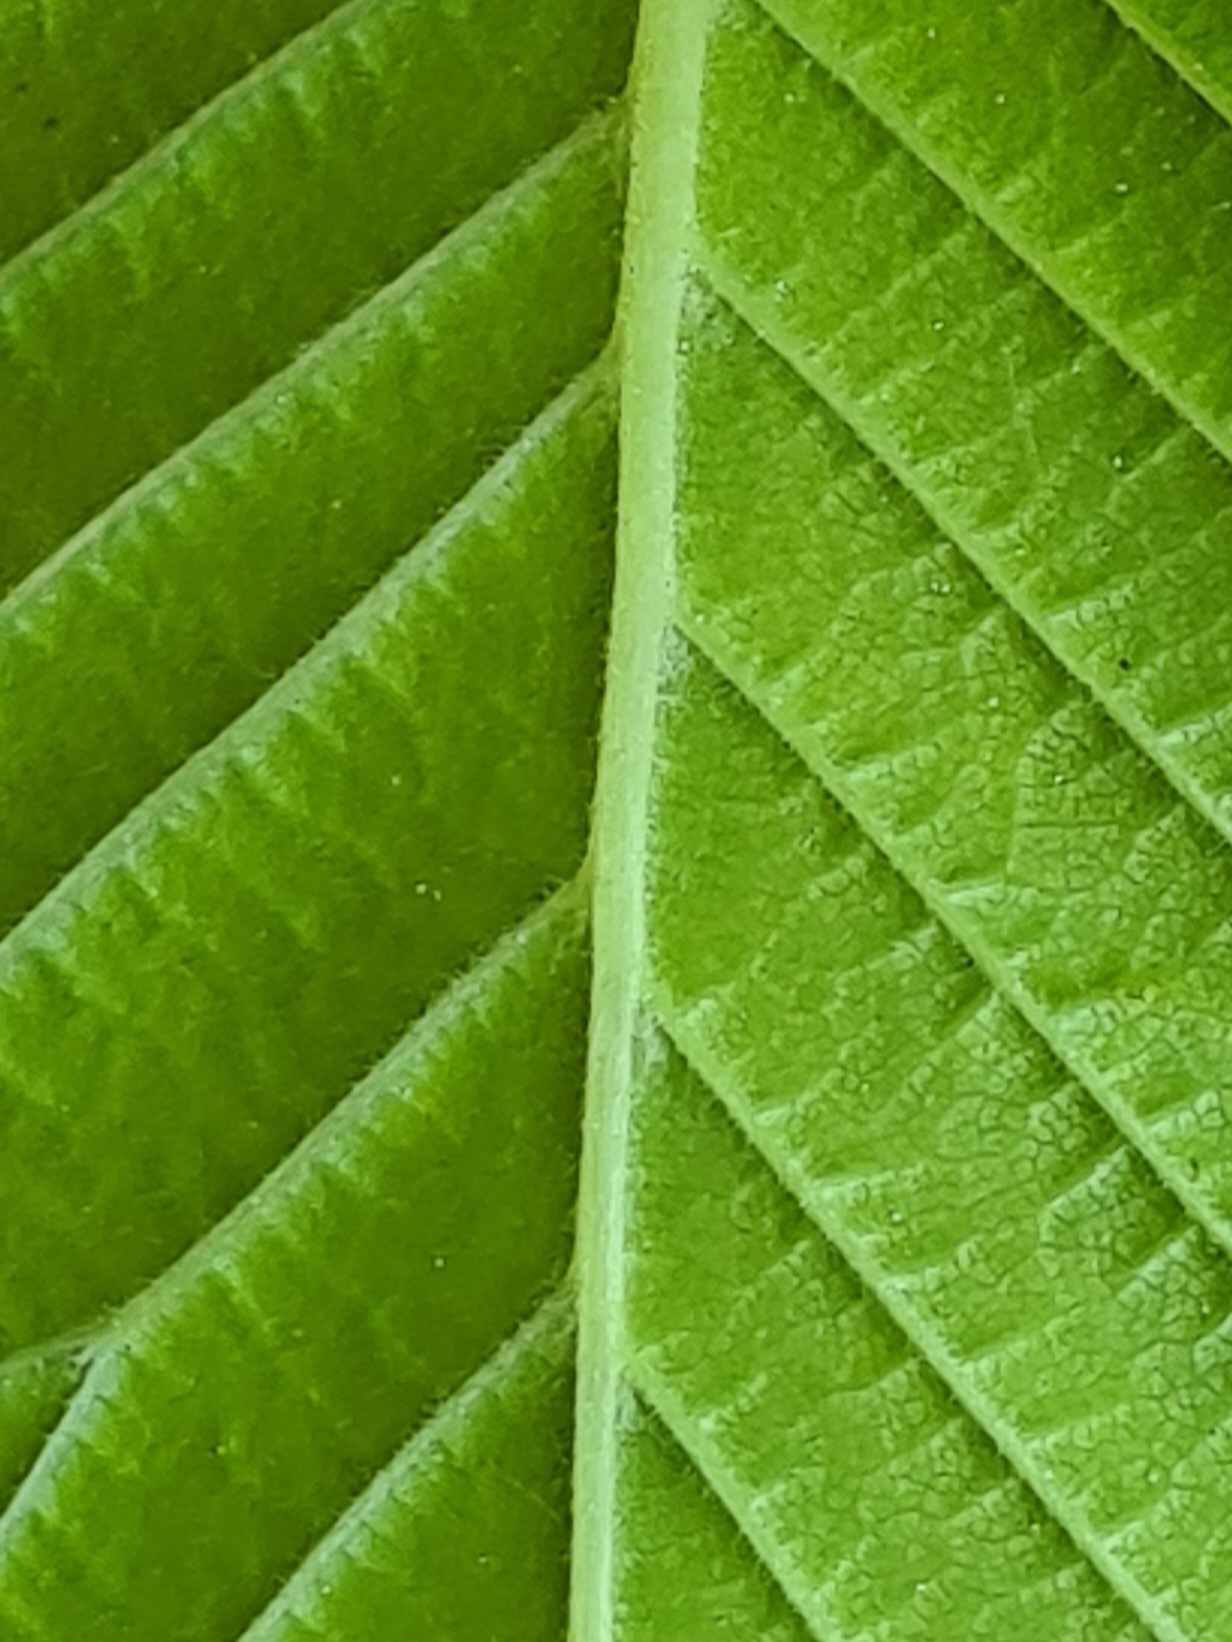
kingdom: Plantae
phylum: Tracheophyta
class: Magnoliopsida
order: Rosales
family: Ulmaceae
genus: Ulmus
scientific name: Ulmus minor
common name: Småbladet elm
